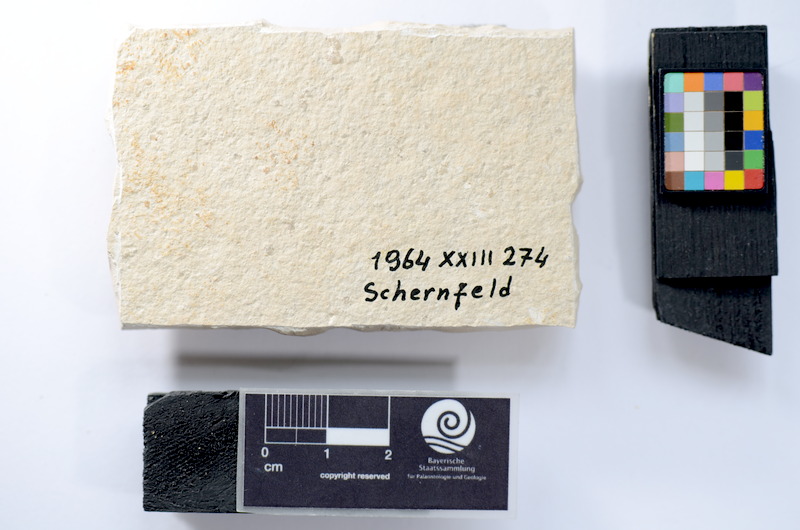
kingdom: Animalia
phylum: Chordata
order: Salmoniformes
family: Orthogonikleithridae
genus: Leptolepides
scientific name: Leptolepides
